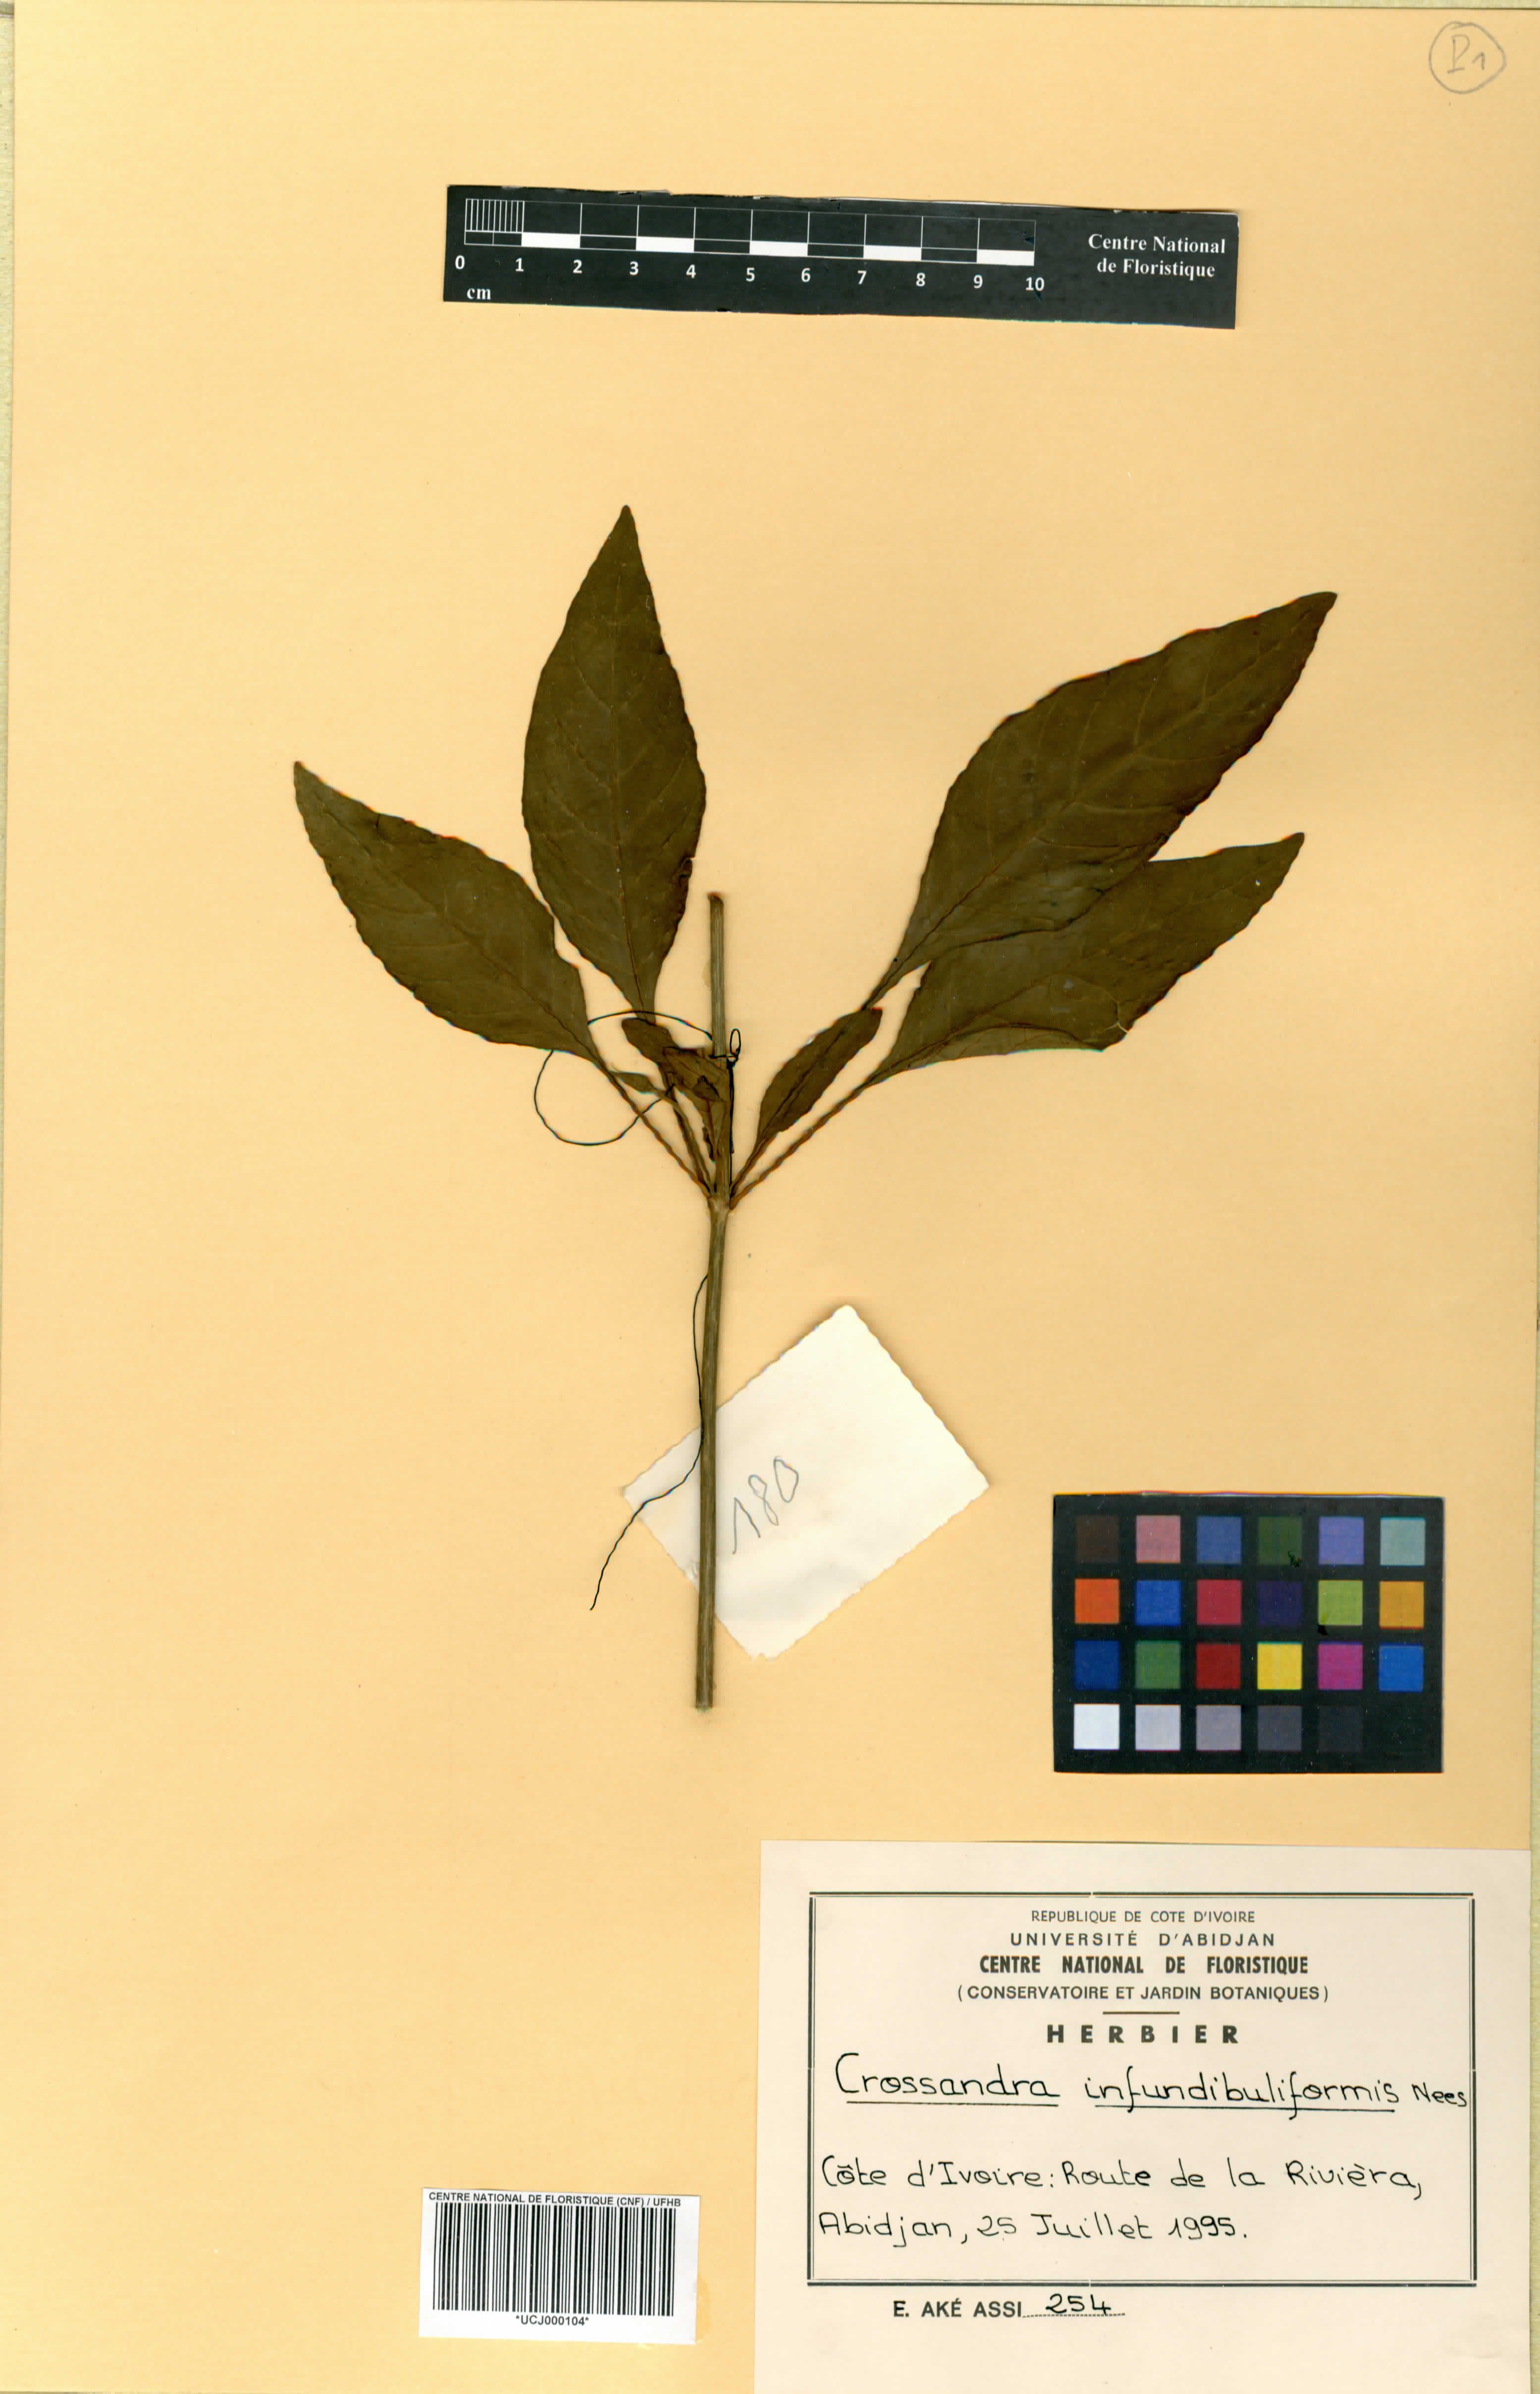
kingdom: Plantae
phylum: Tracheophyta
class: Magnoliopsida
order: Lamiales
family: Acanthaceae
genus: Crossandra
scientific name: Crossandra infundibuliformis
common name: Firecracker-flower
